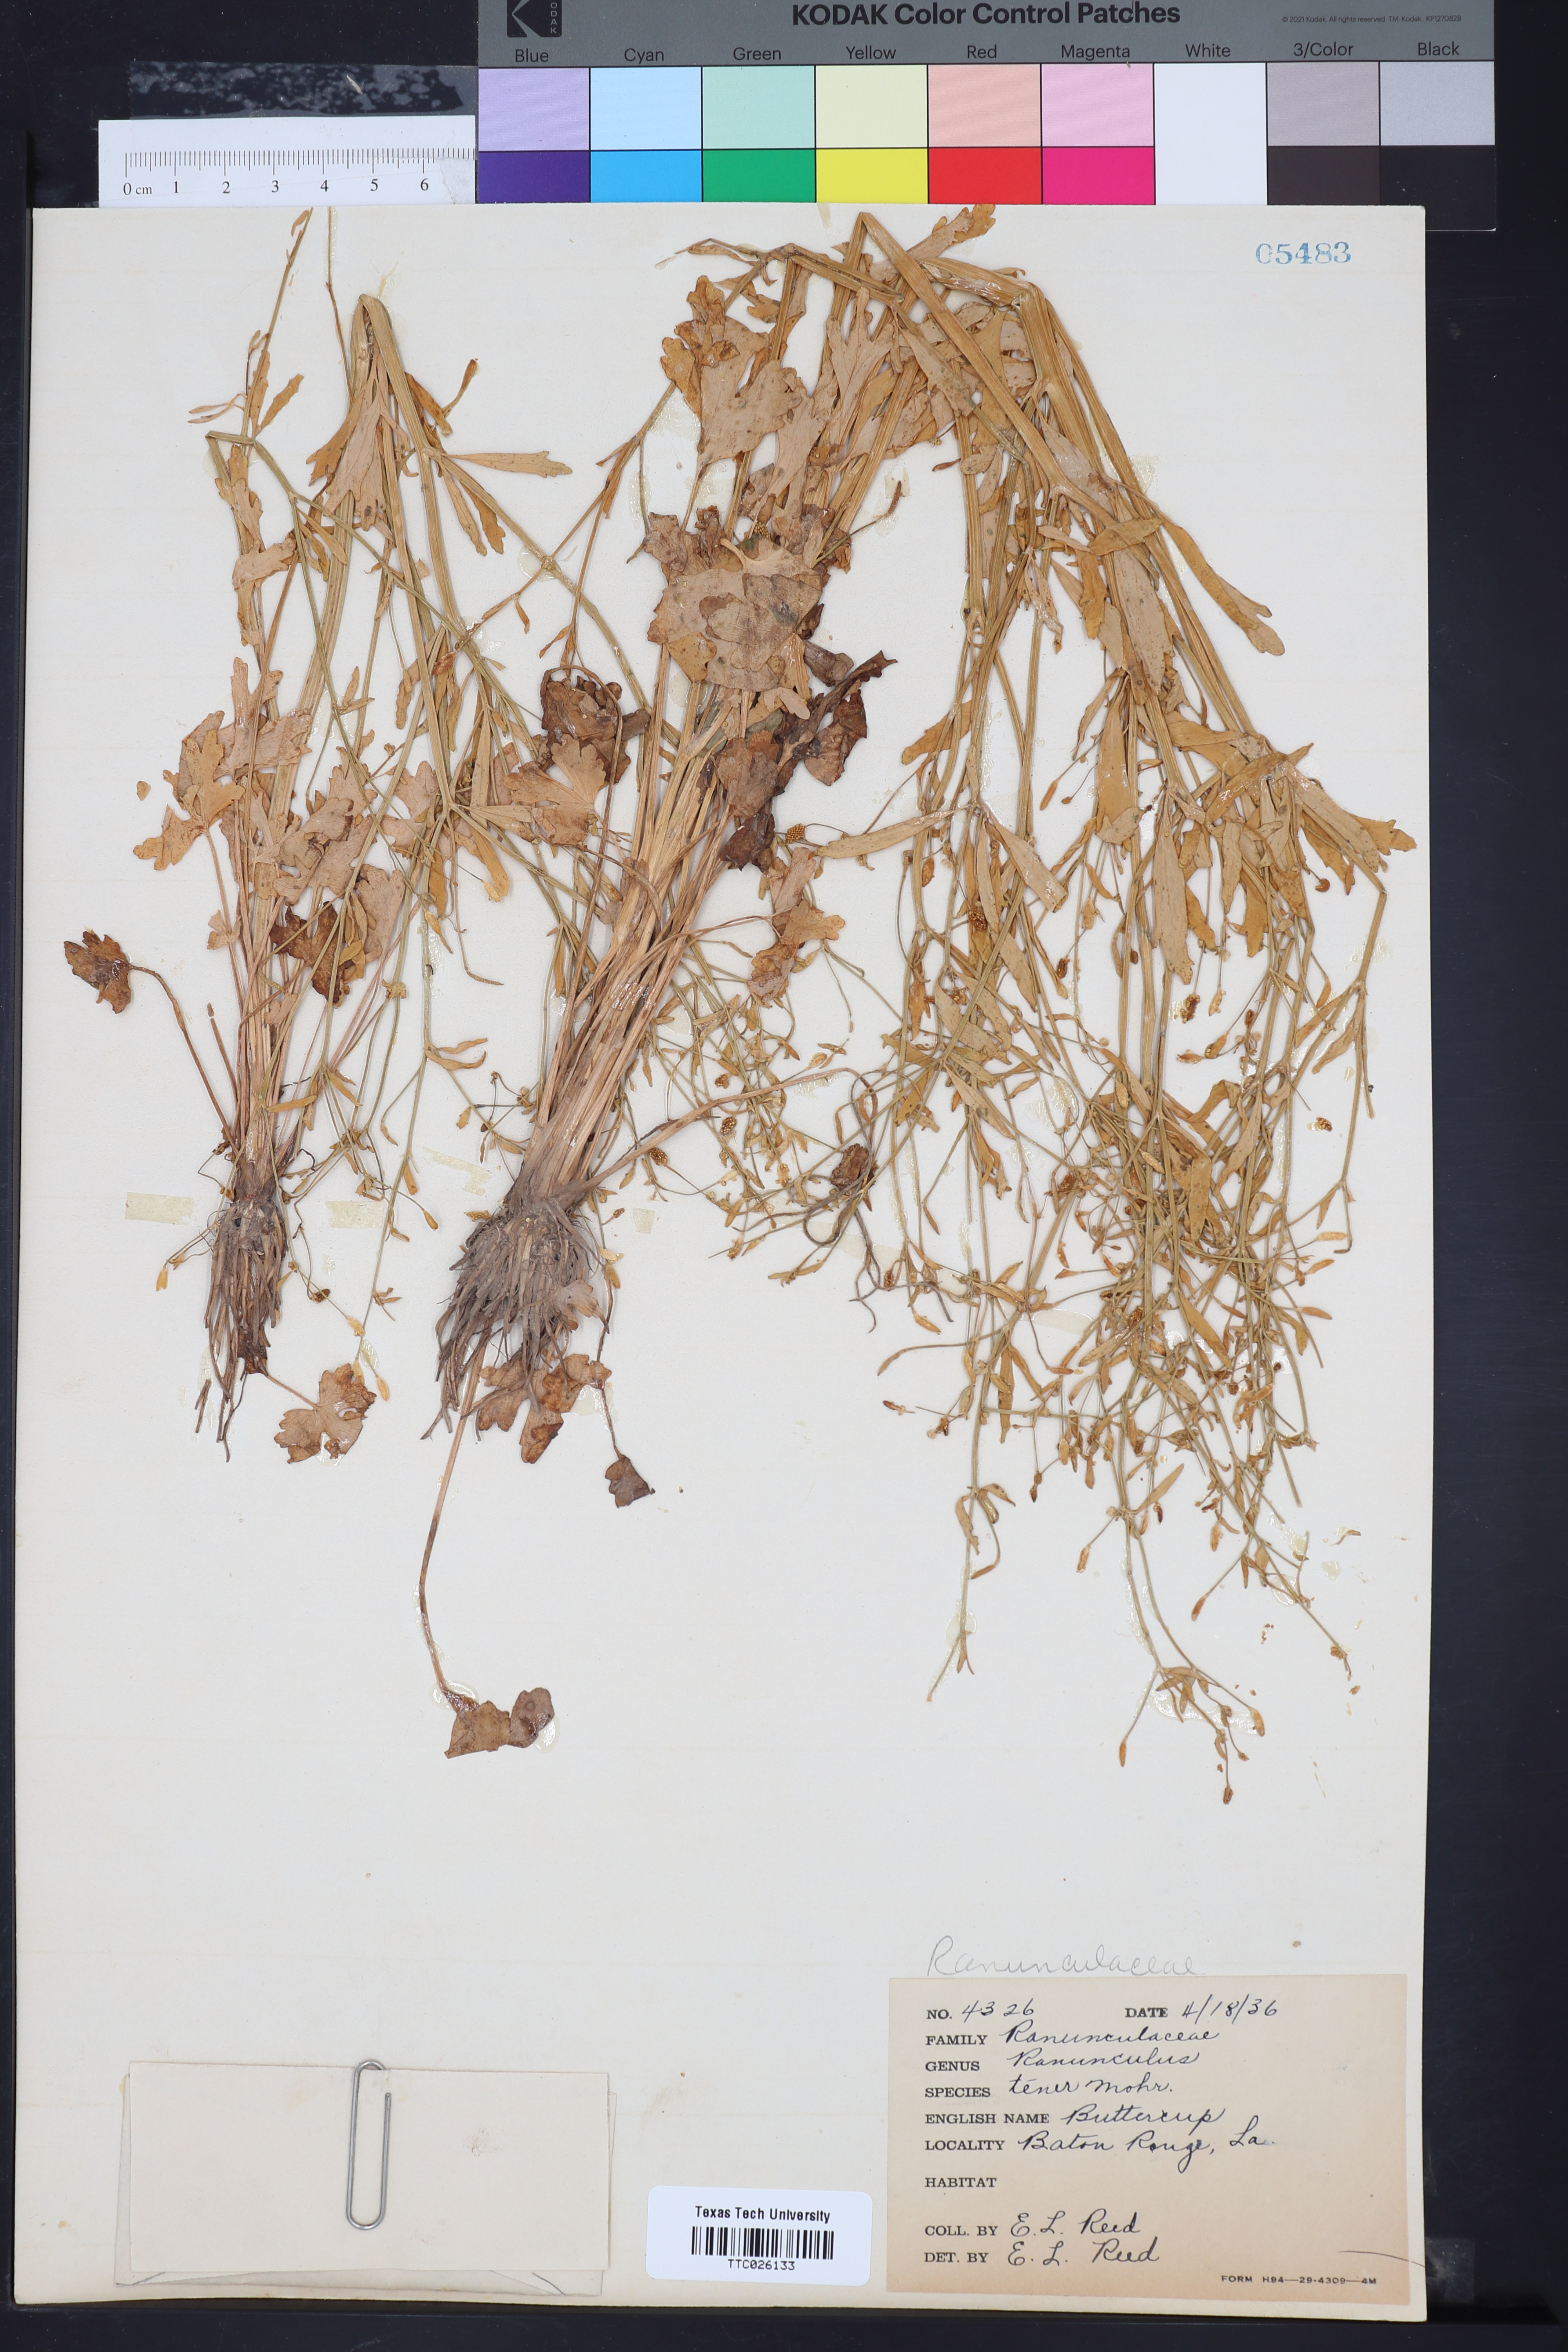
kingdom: Plantae
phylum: Tracheophyta
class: Magnoliopsida
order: Ranunculales
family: Ranunculaceae
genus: Ranunculus
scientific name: Ranunculus pusillus
